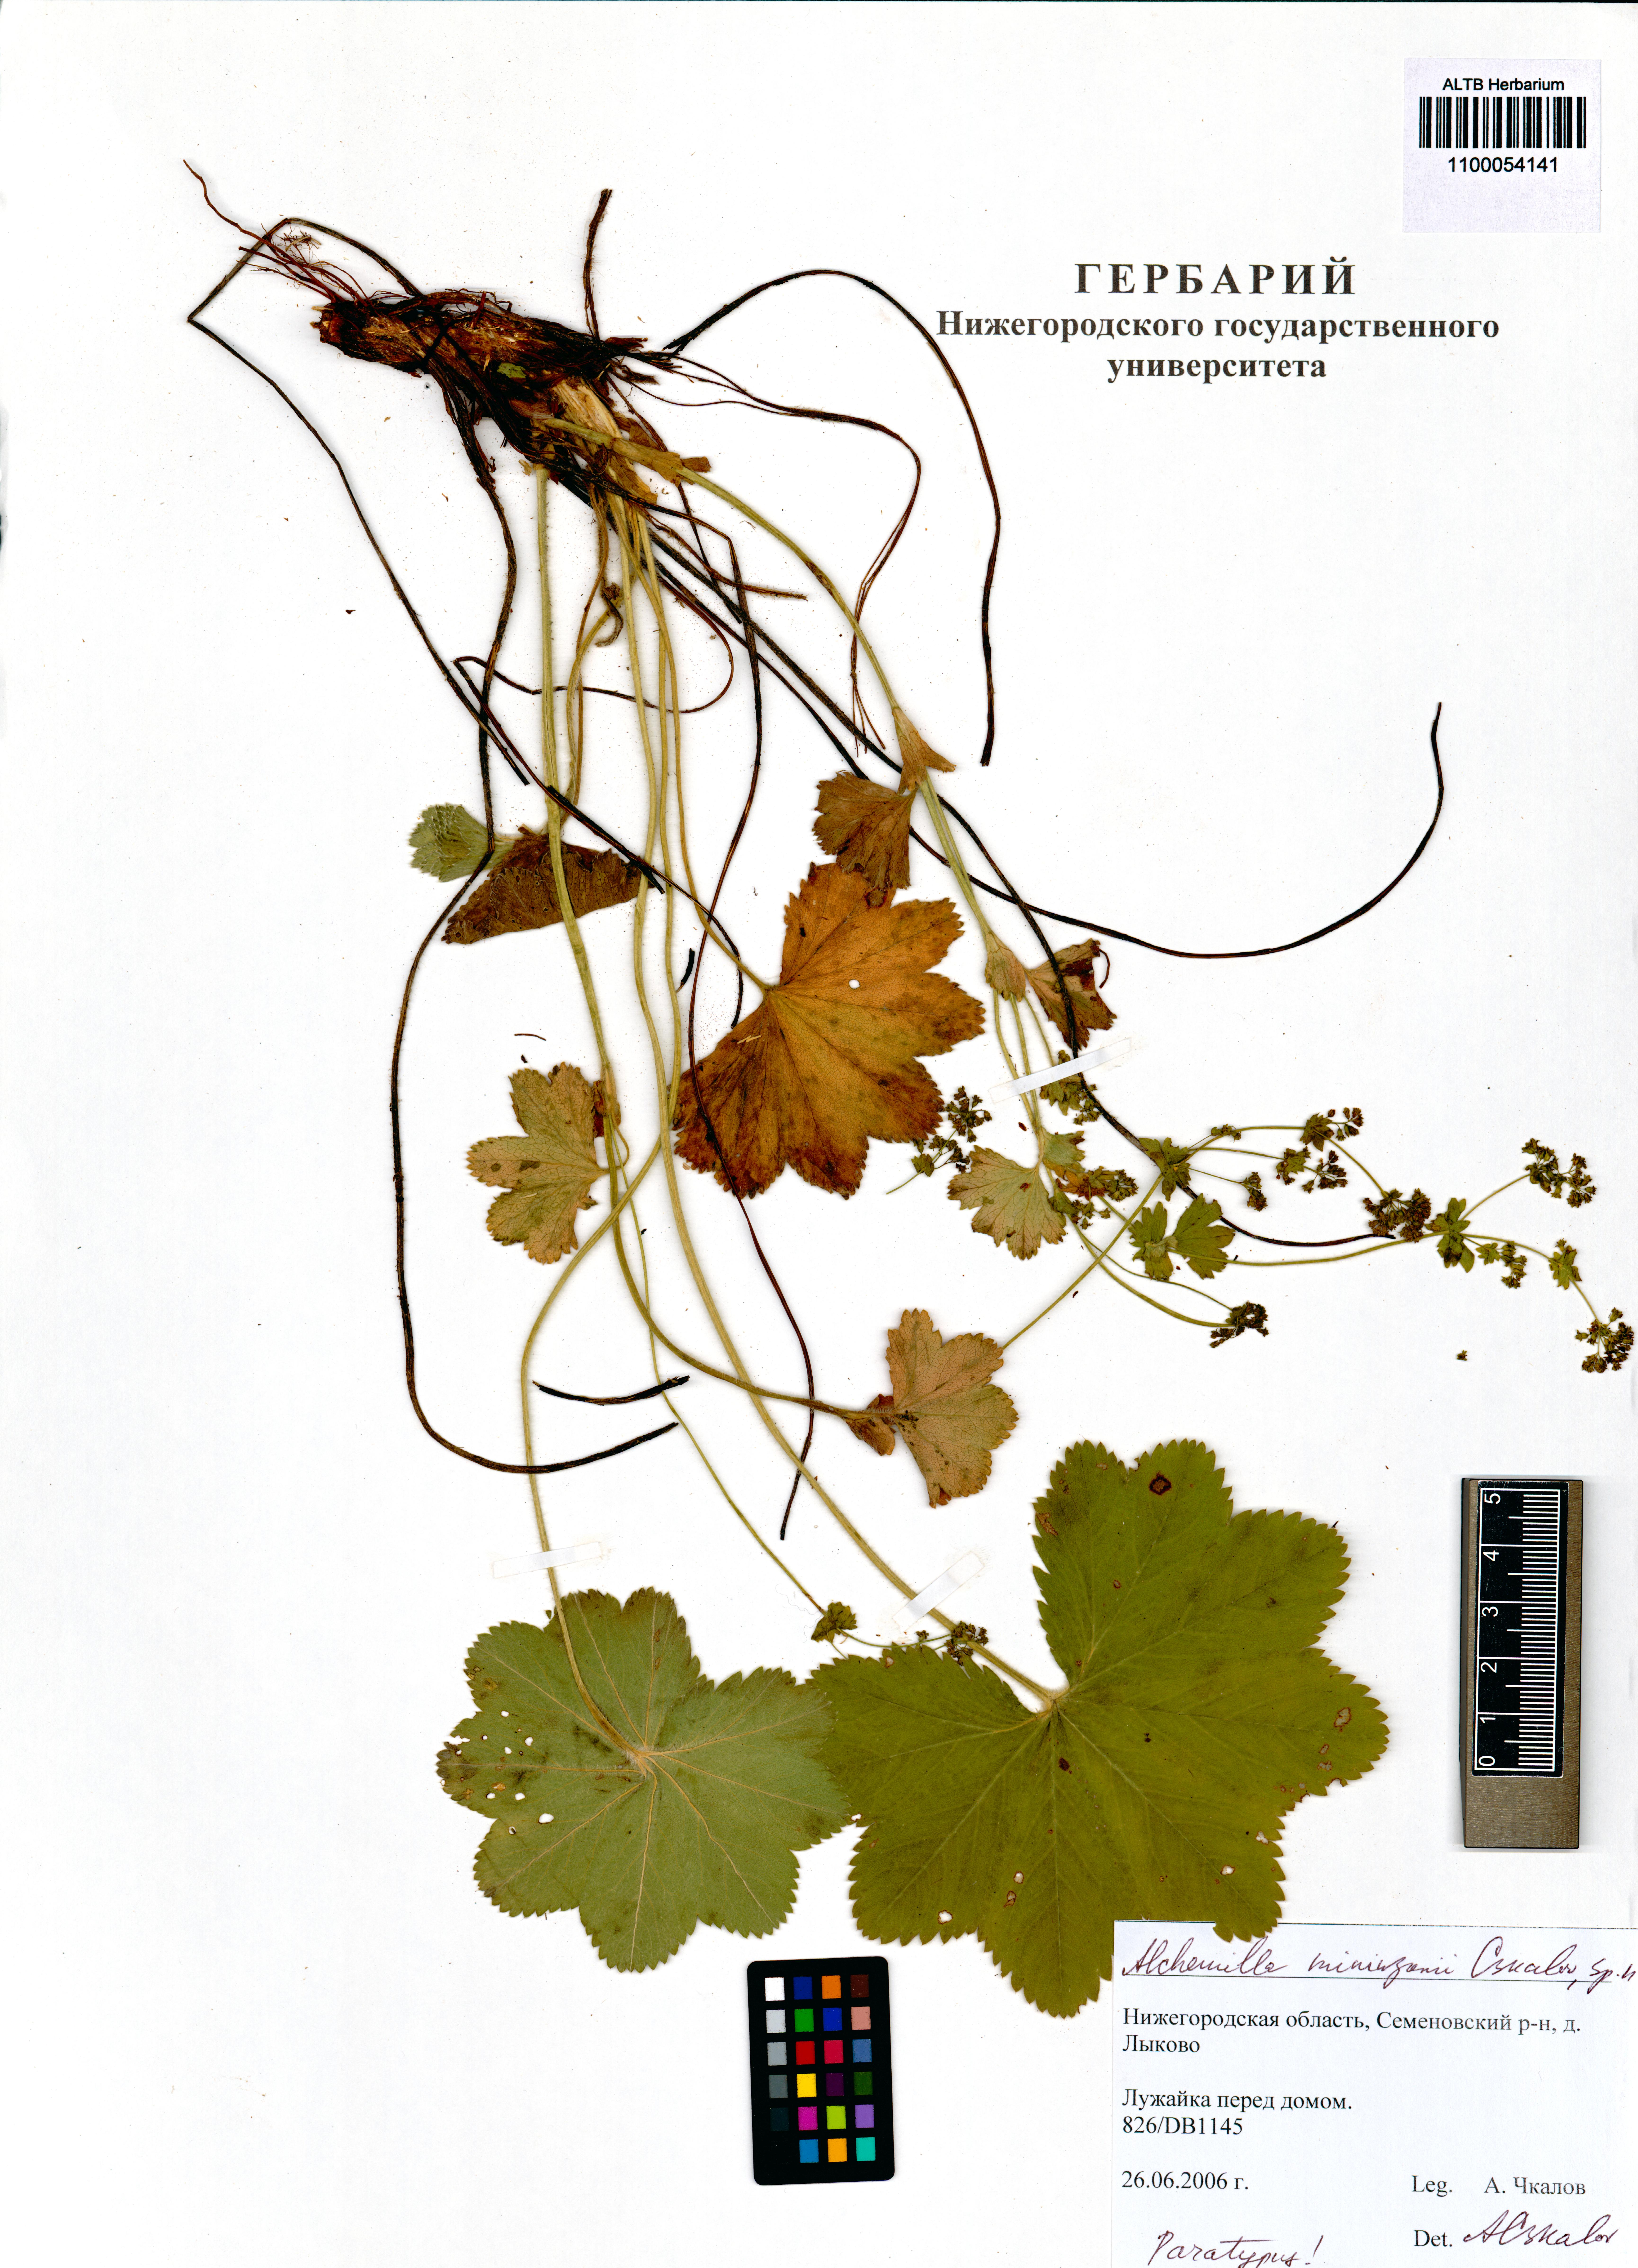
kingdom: Plantae
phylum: Tracheophyta
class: Magnoliopsida
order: Rosales
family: Rosaceae
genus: Alchemilla
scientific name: Alchemilla mininzonii
